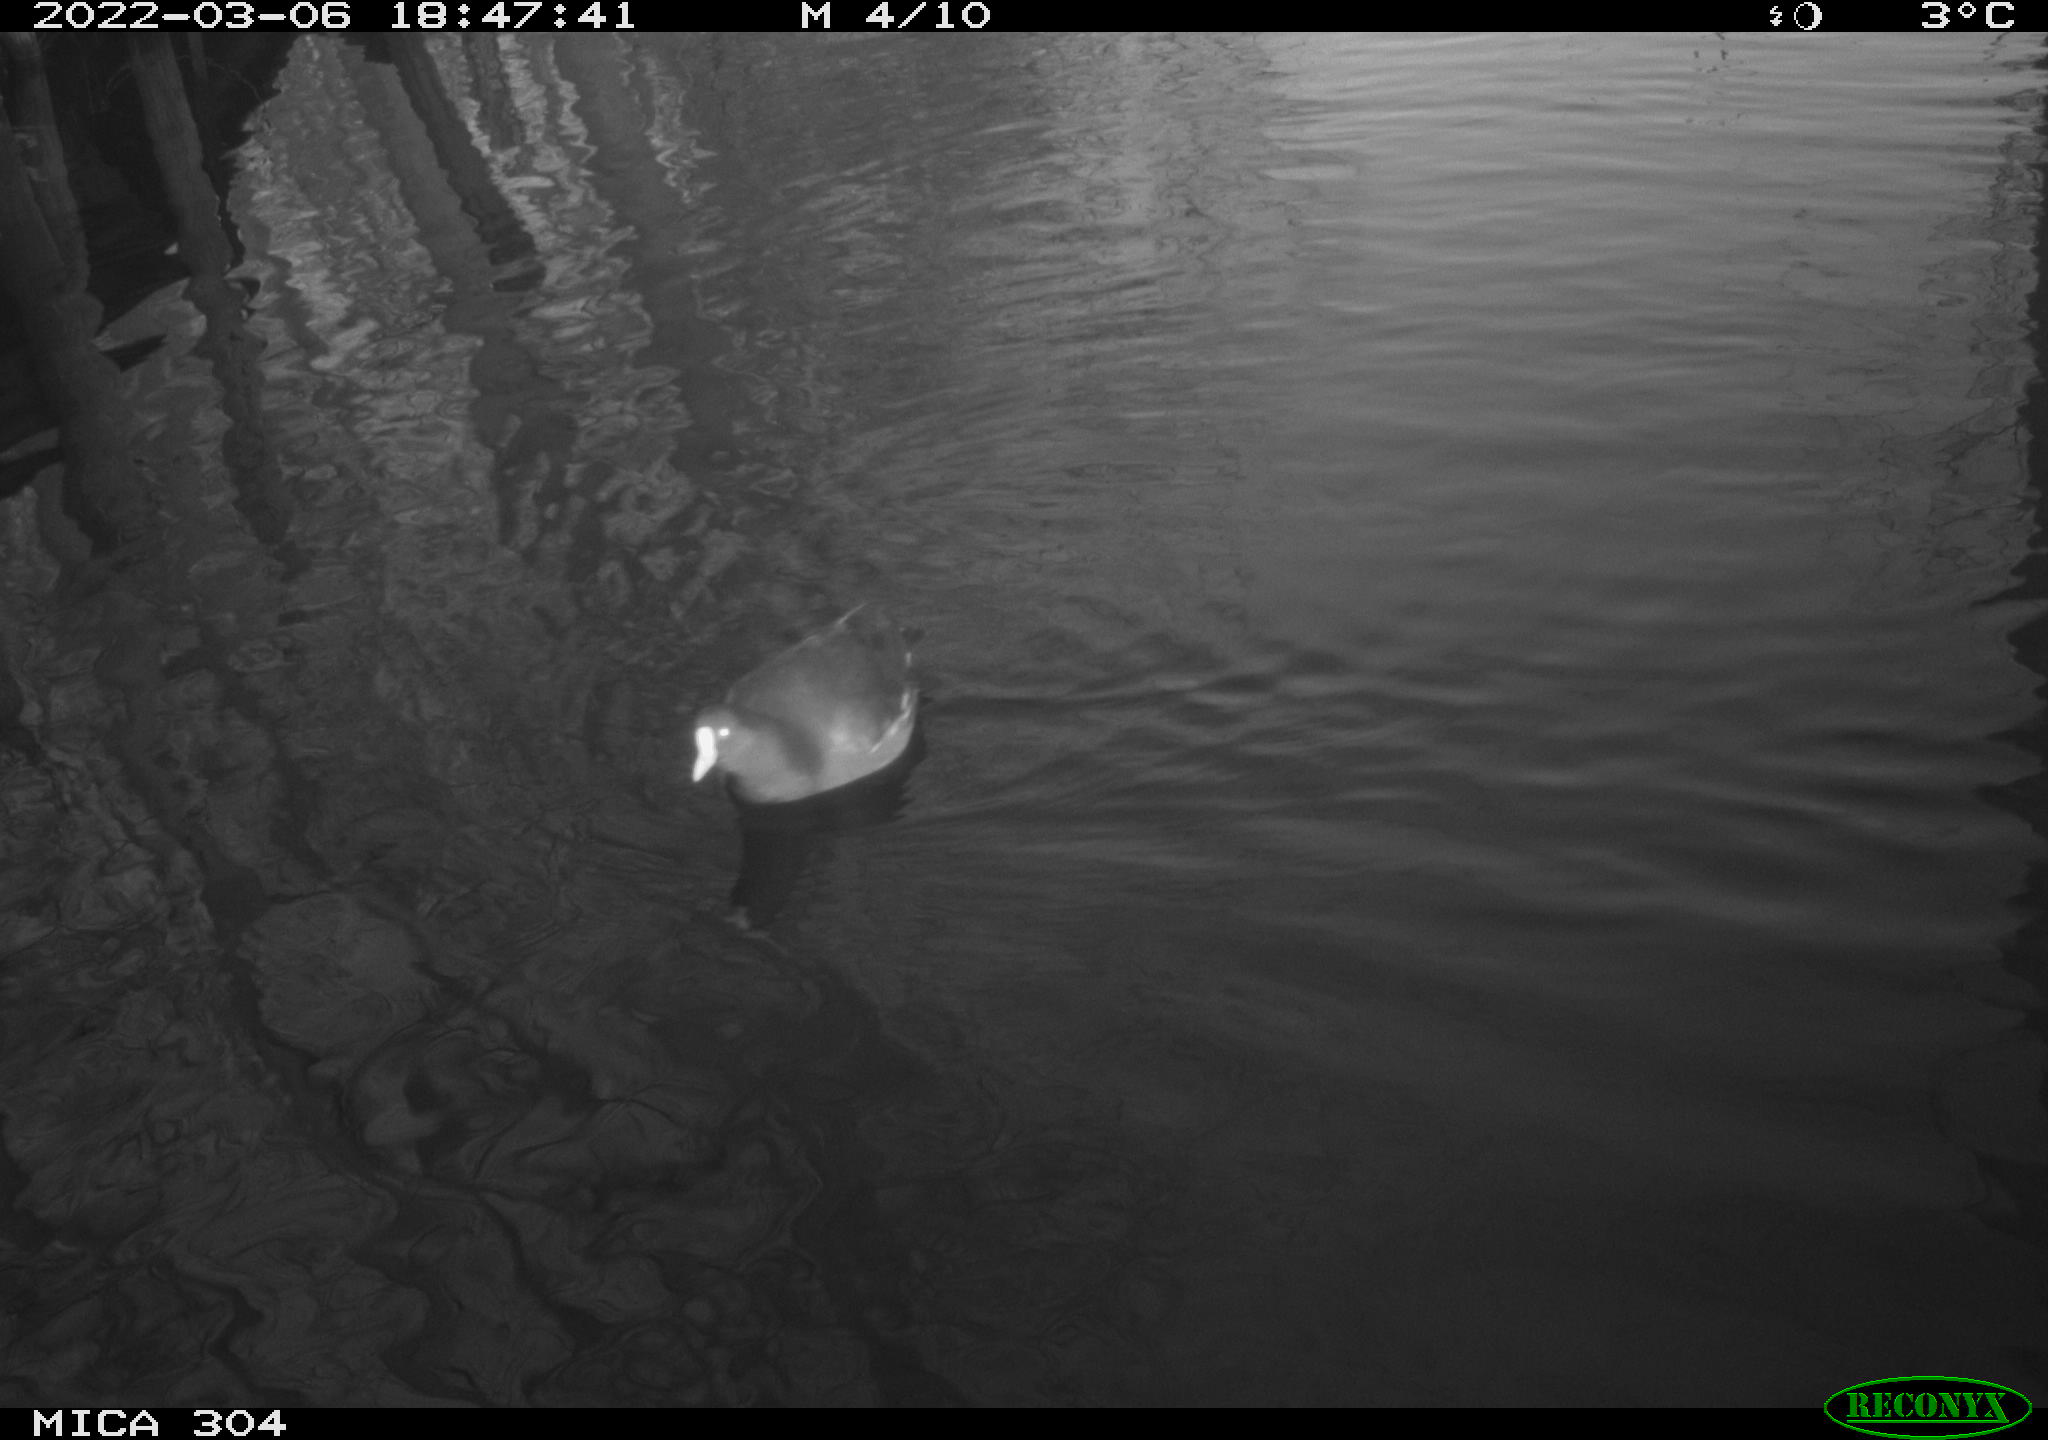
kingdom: Animalia
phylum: Chordata
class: Aves
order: Gruiformes
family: Rallidae
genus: Gallinula
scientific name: Gallinula chloropus
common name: Common moorhen
